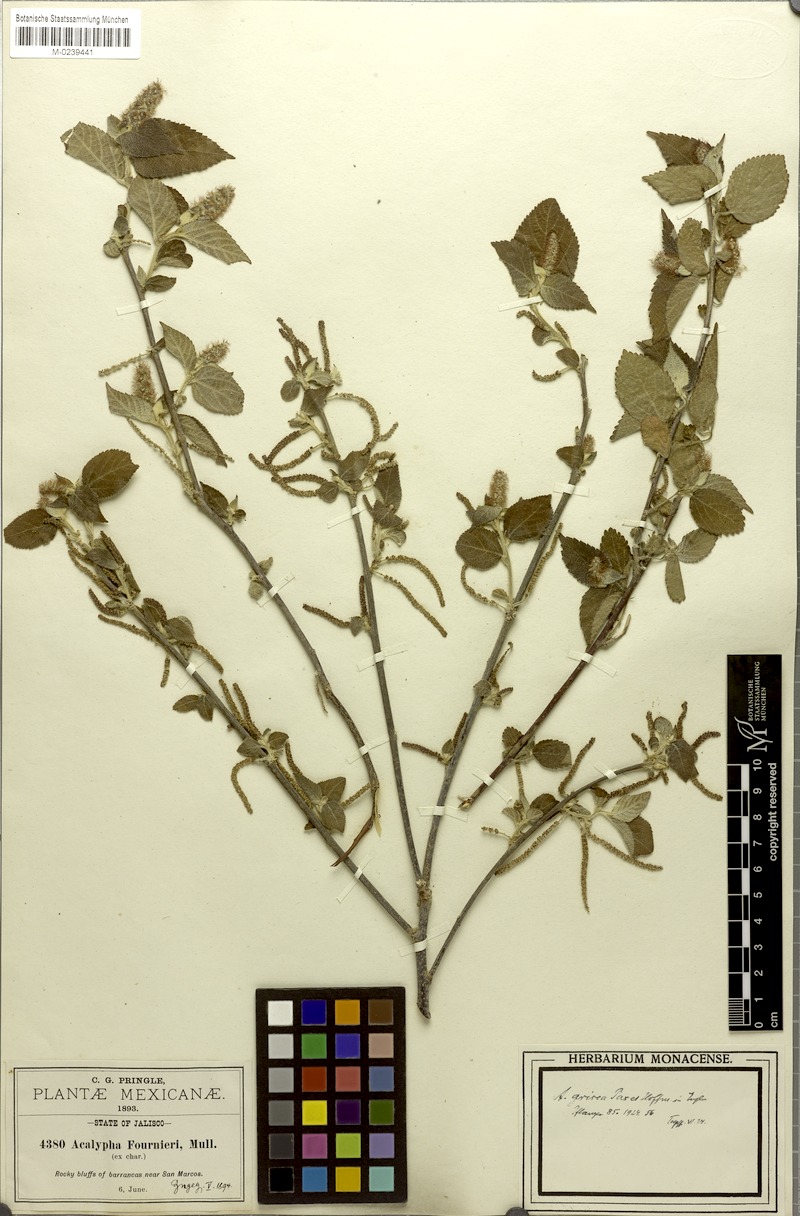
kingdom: Plantae
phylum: Tracheophyta
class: Magnoliopsida
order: Malpighiales
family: Euphorbiaceae
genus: Acalypha
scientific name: Acalypha grisea
